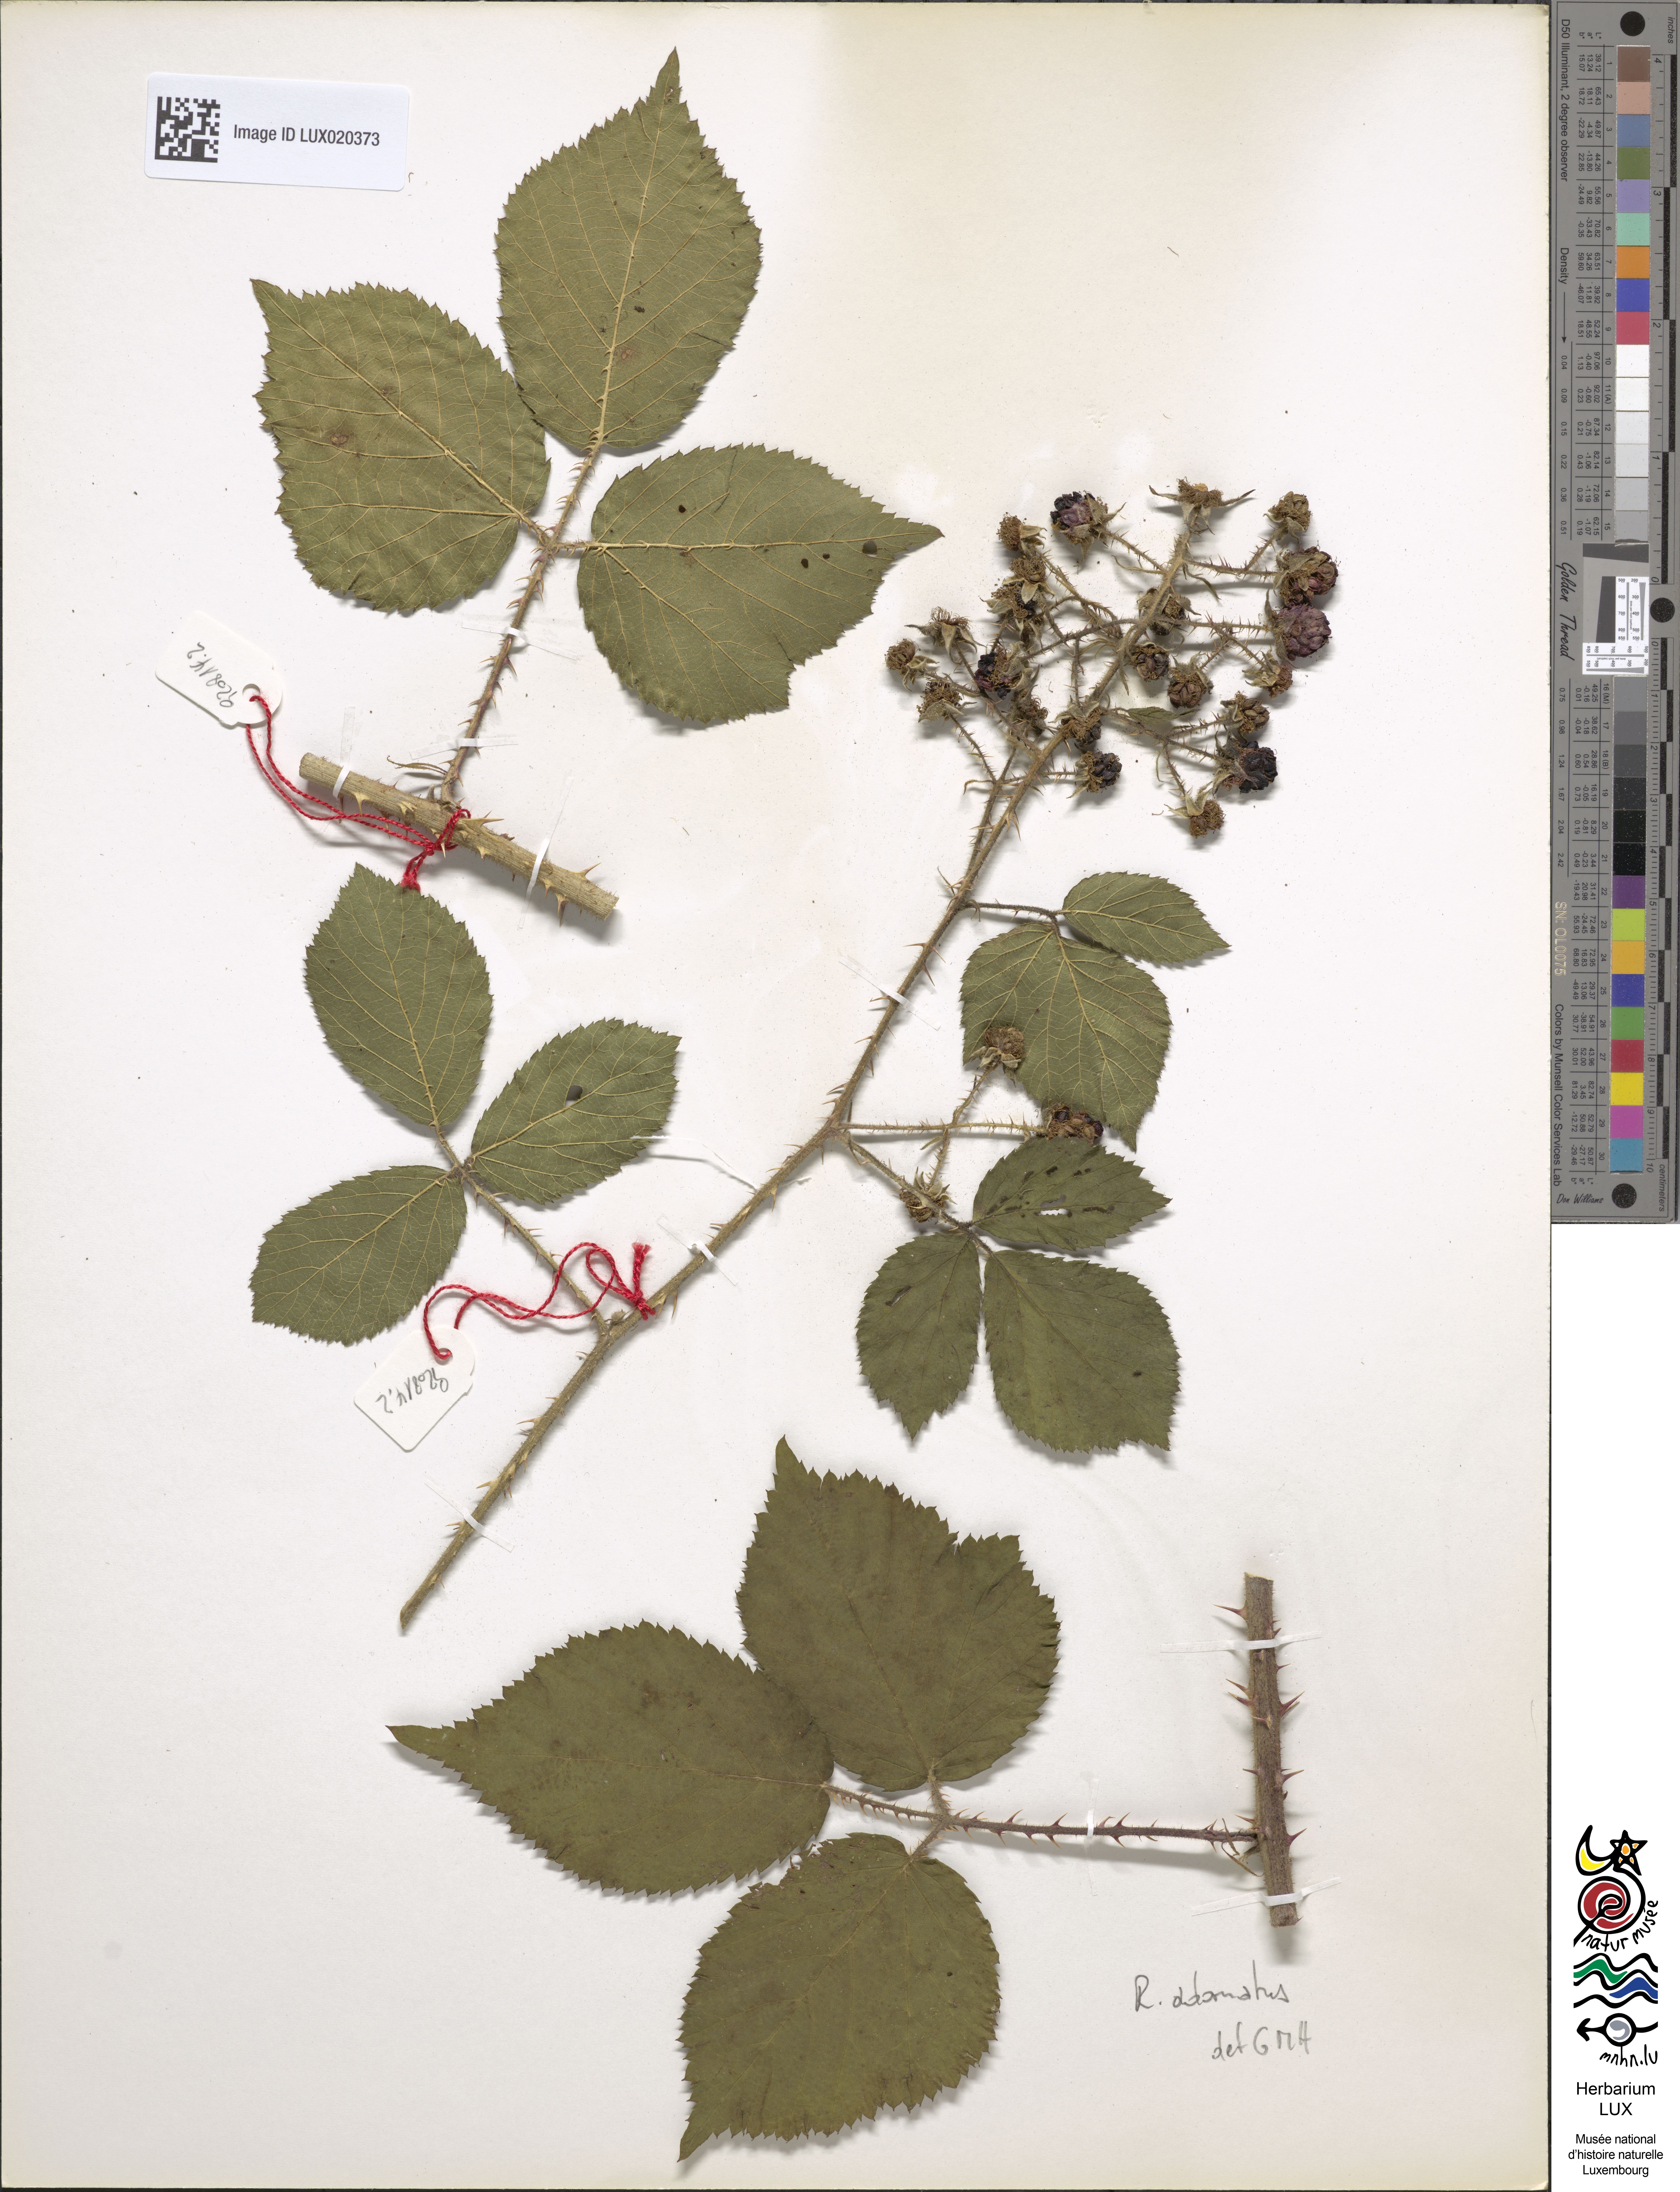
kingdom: Plantae
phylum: Tracheophyta
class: Magnoliopsida
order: Rosales
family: Rosaceae
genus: Rubus
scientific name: Rubus
